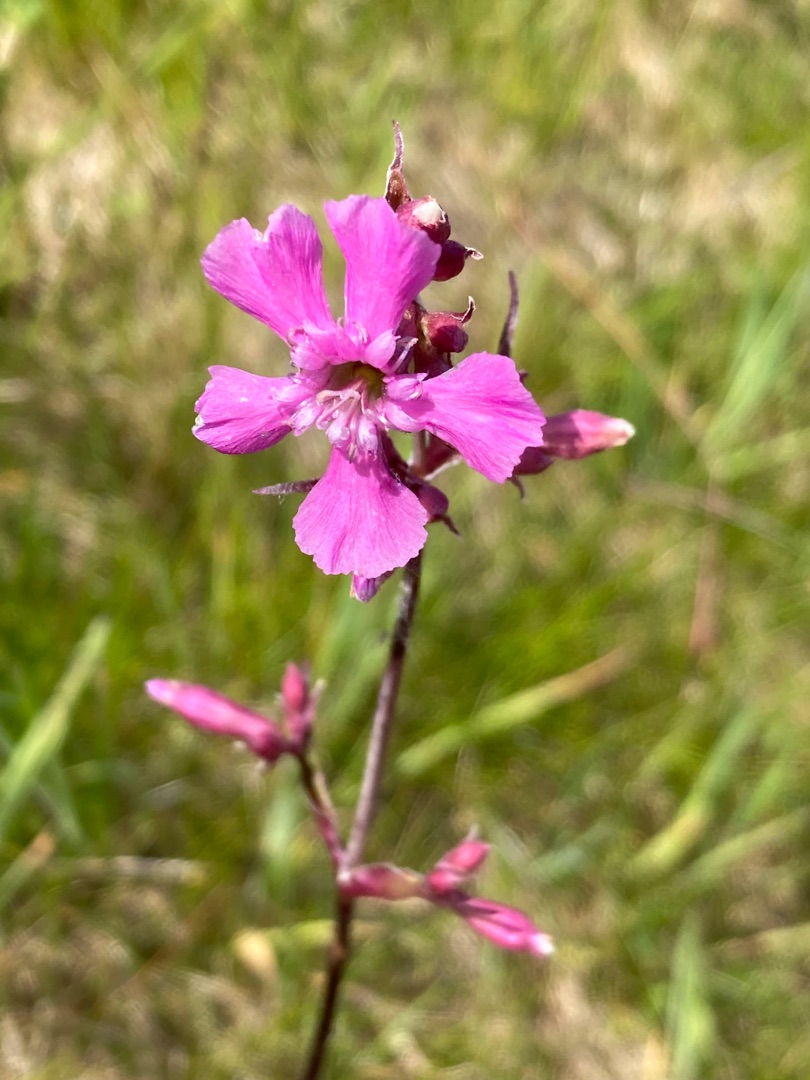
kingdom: Plantae
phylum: Tracheophyta
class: Magnoliopsida
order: Caryophyllales
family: Caryophyllaceae
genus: Viscaria
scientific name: Viscaria vulgaris
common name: Tjærenellike
